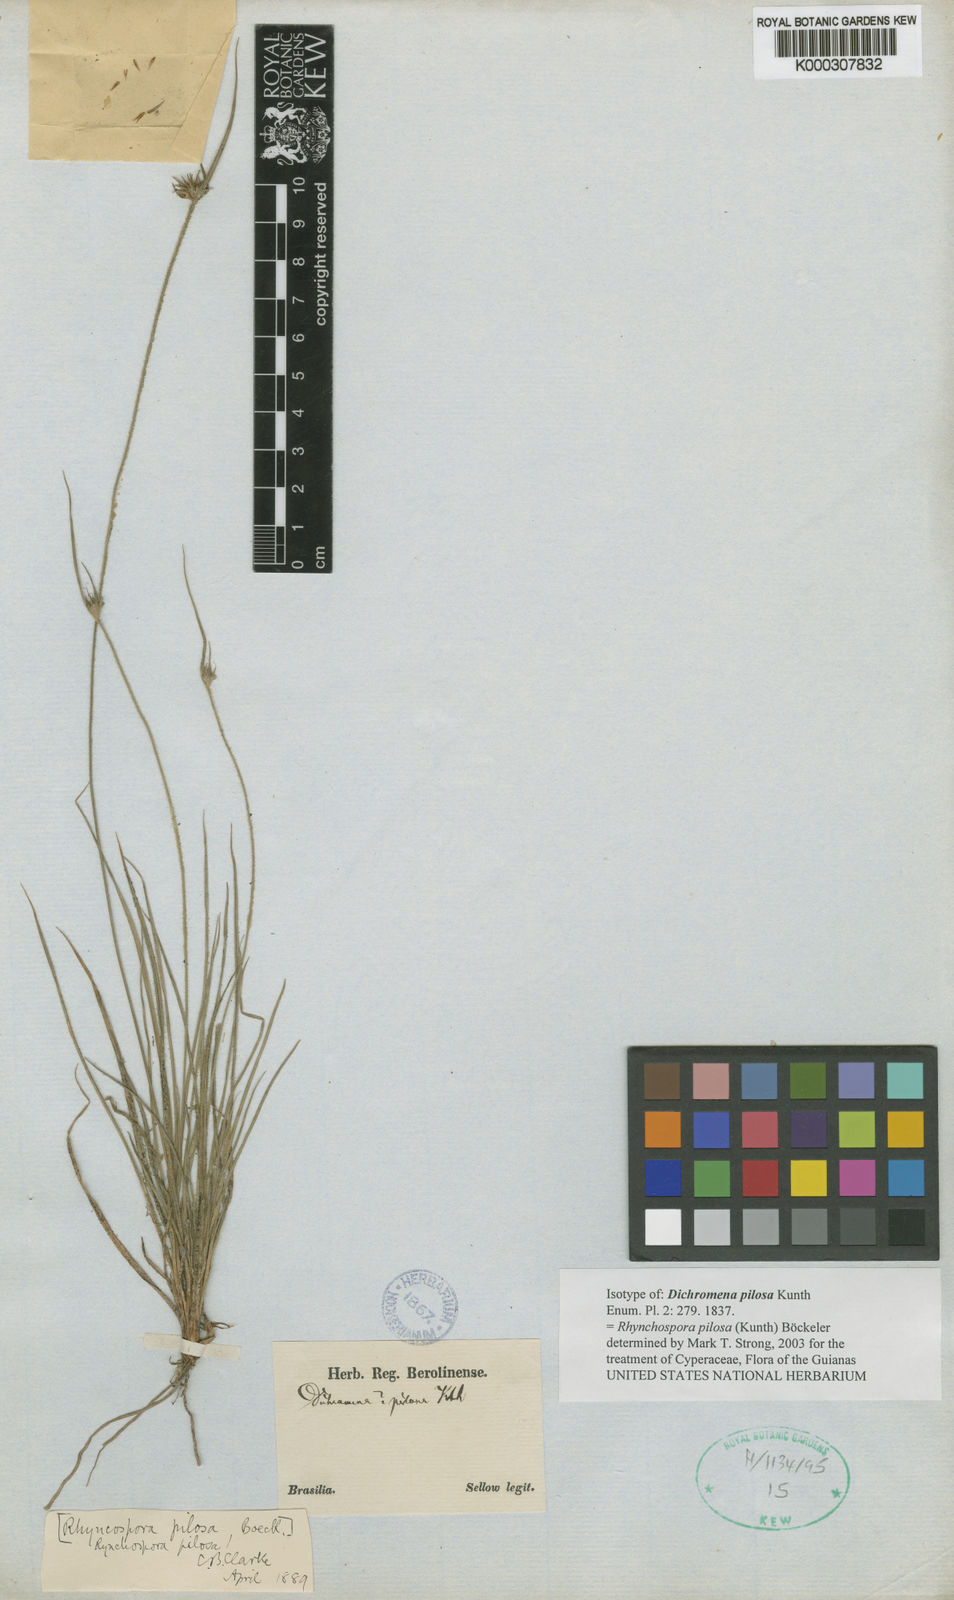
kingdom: Plantae
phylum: Tracheophyta
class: Liliopsida
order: Poales
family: Cyperaceae
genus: Rhynchospora
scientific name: Rhynchospora pilosa
